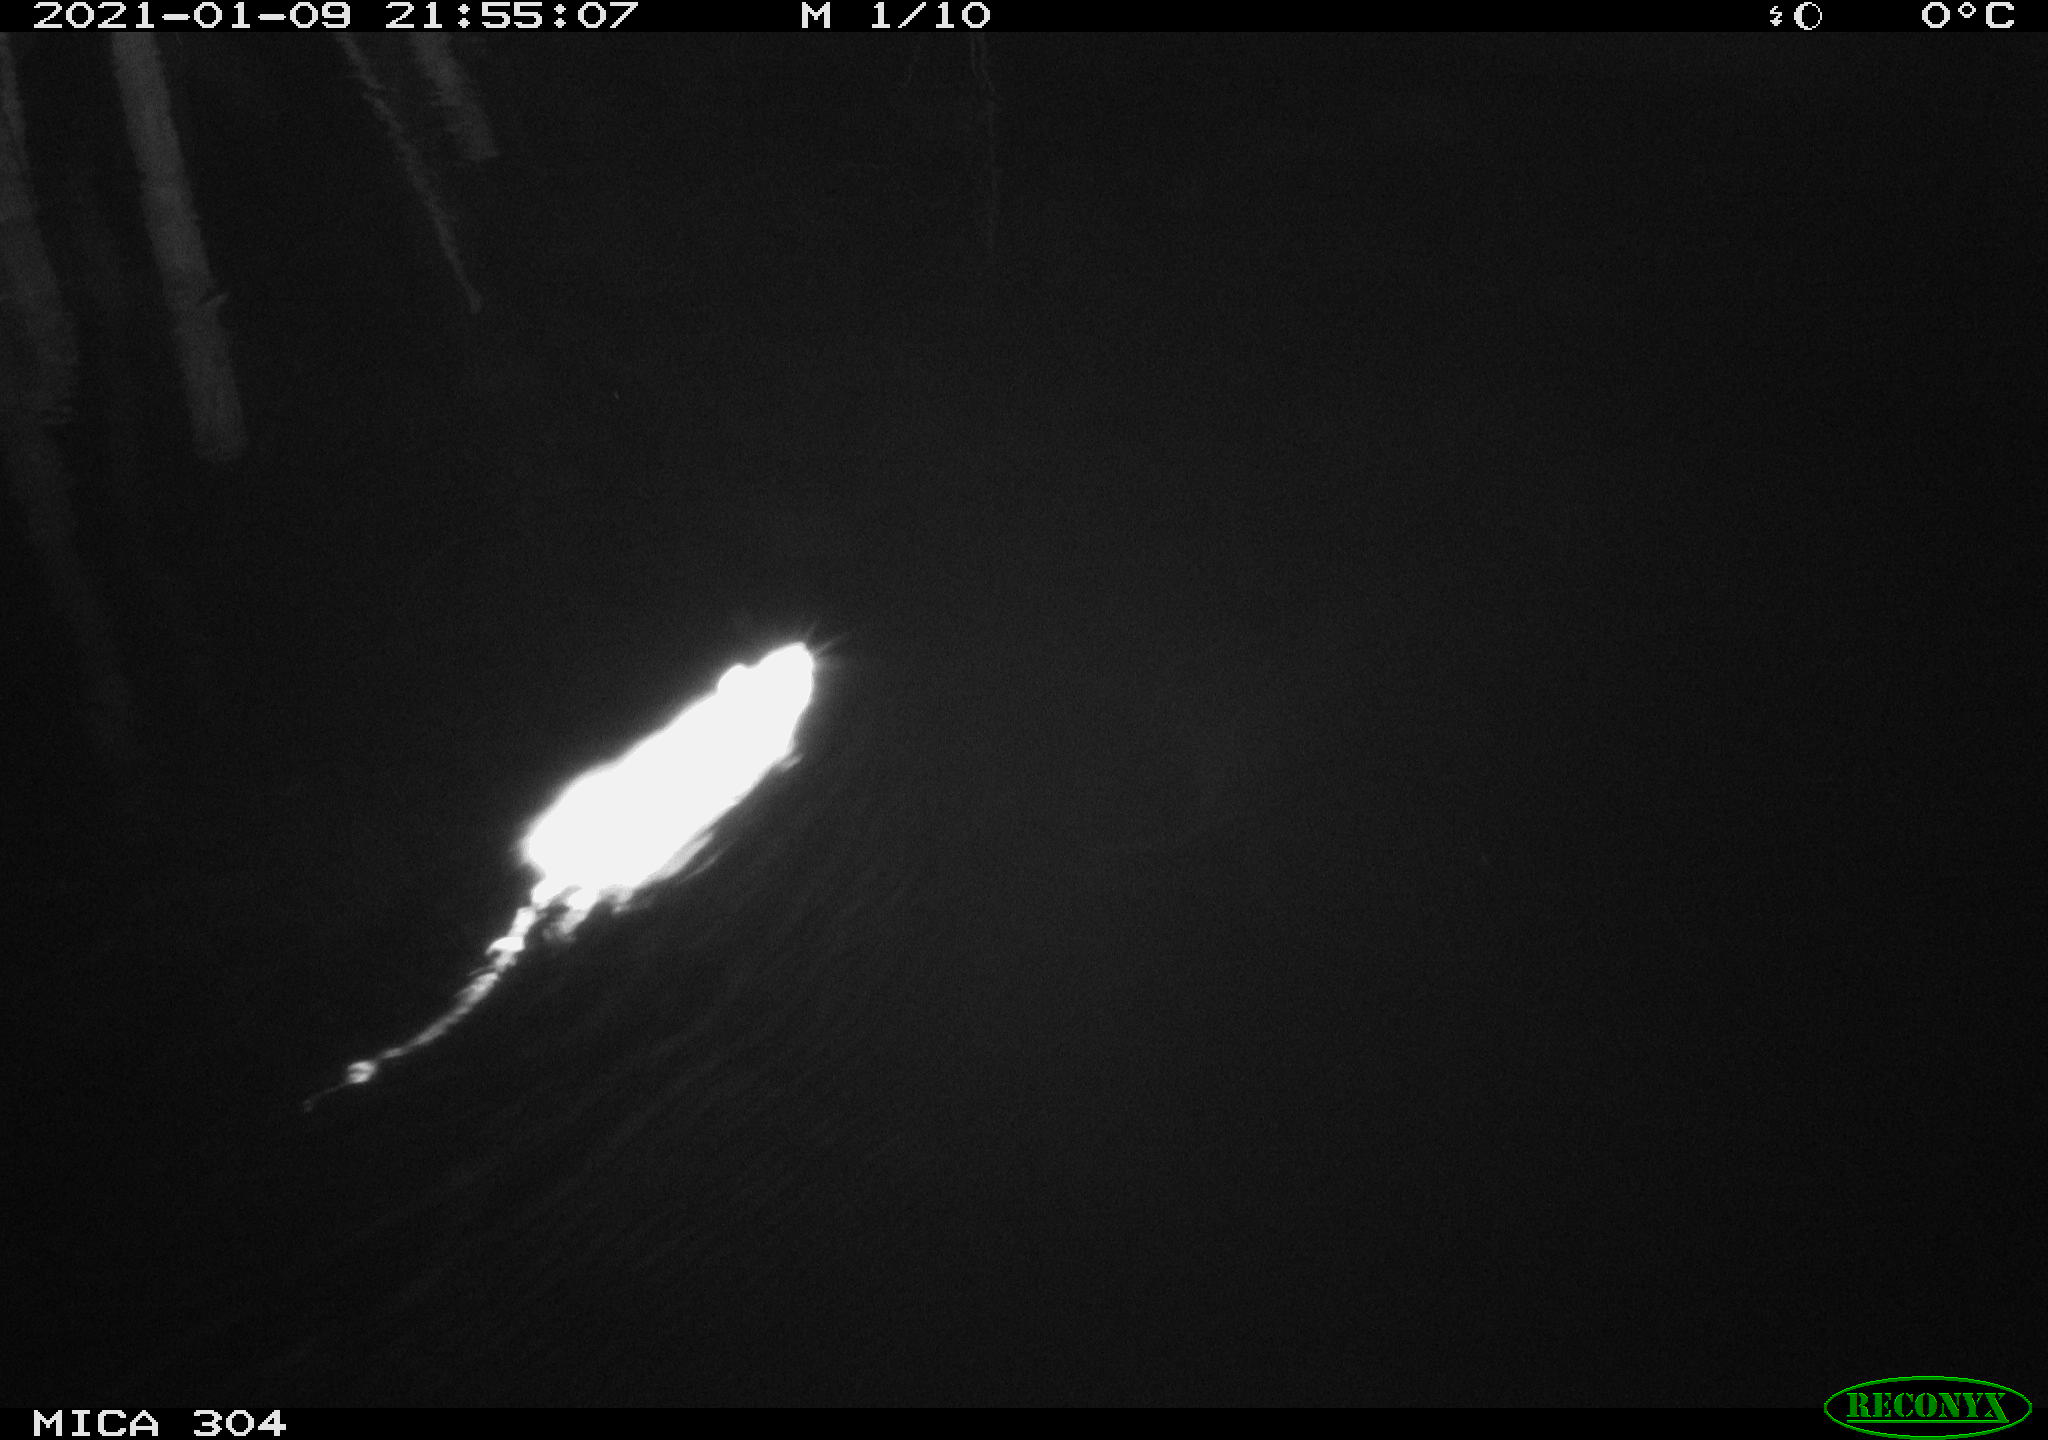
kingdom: Animalia
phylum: Chordata
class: Mammalia
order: Rodentia
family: Muridae
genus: Rattus
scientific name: Rattus norvegicus
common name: Brown rat
